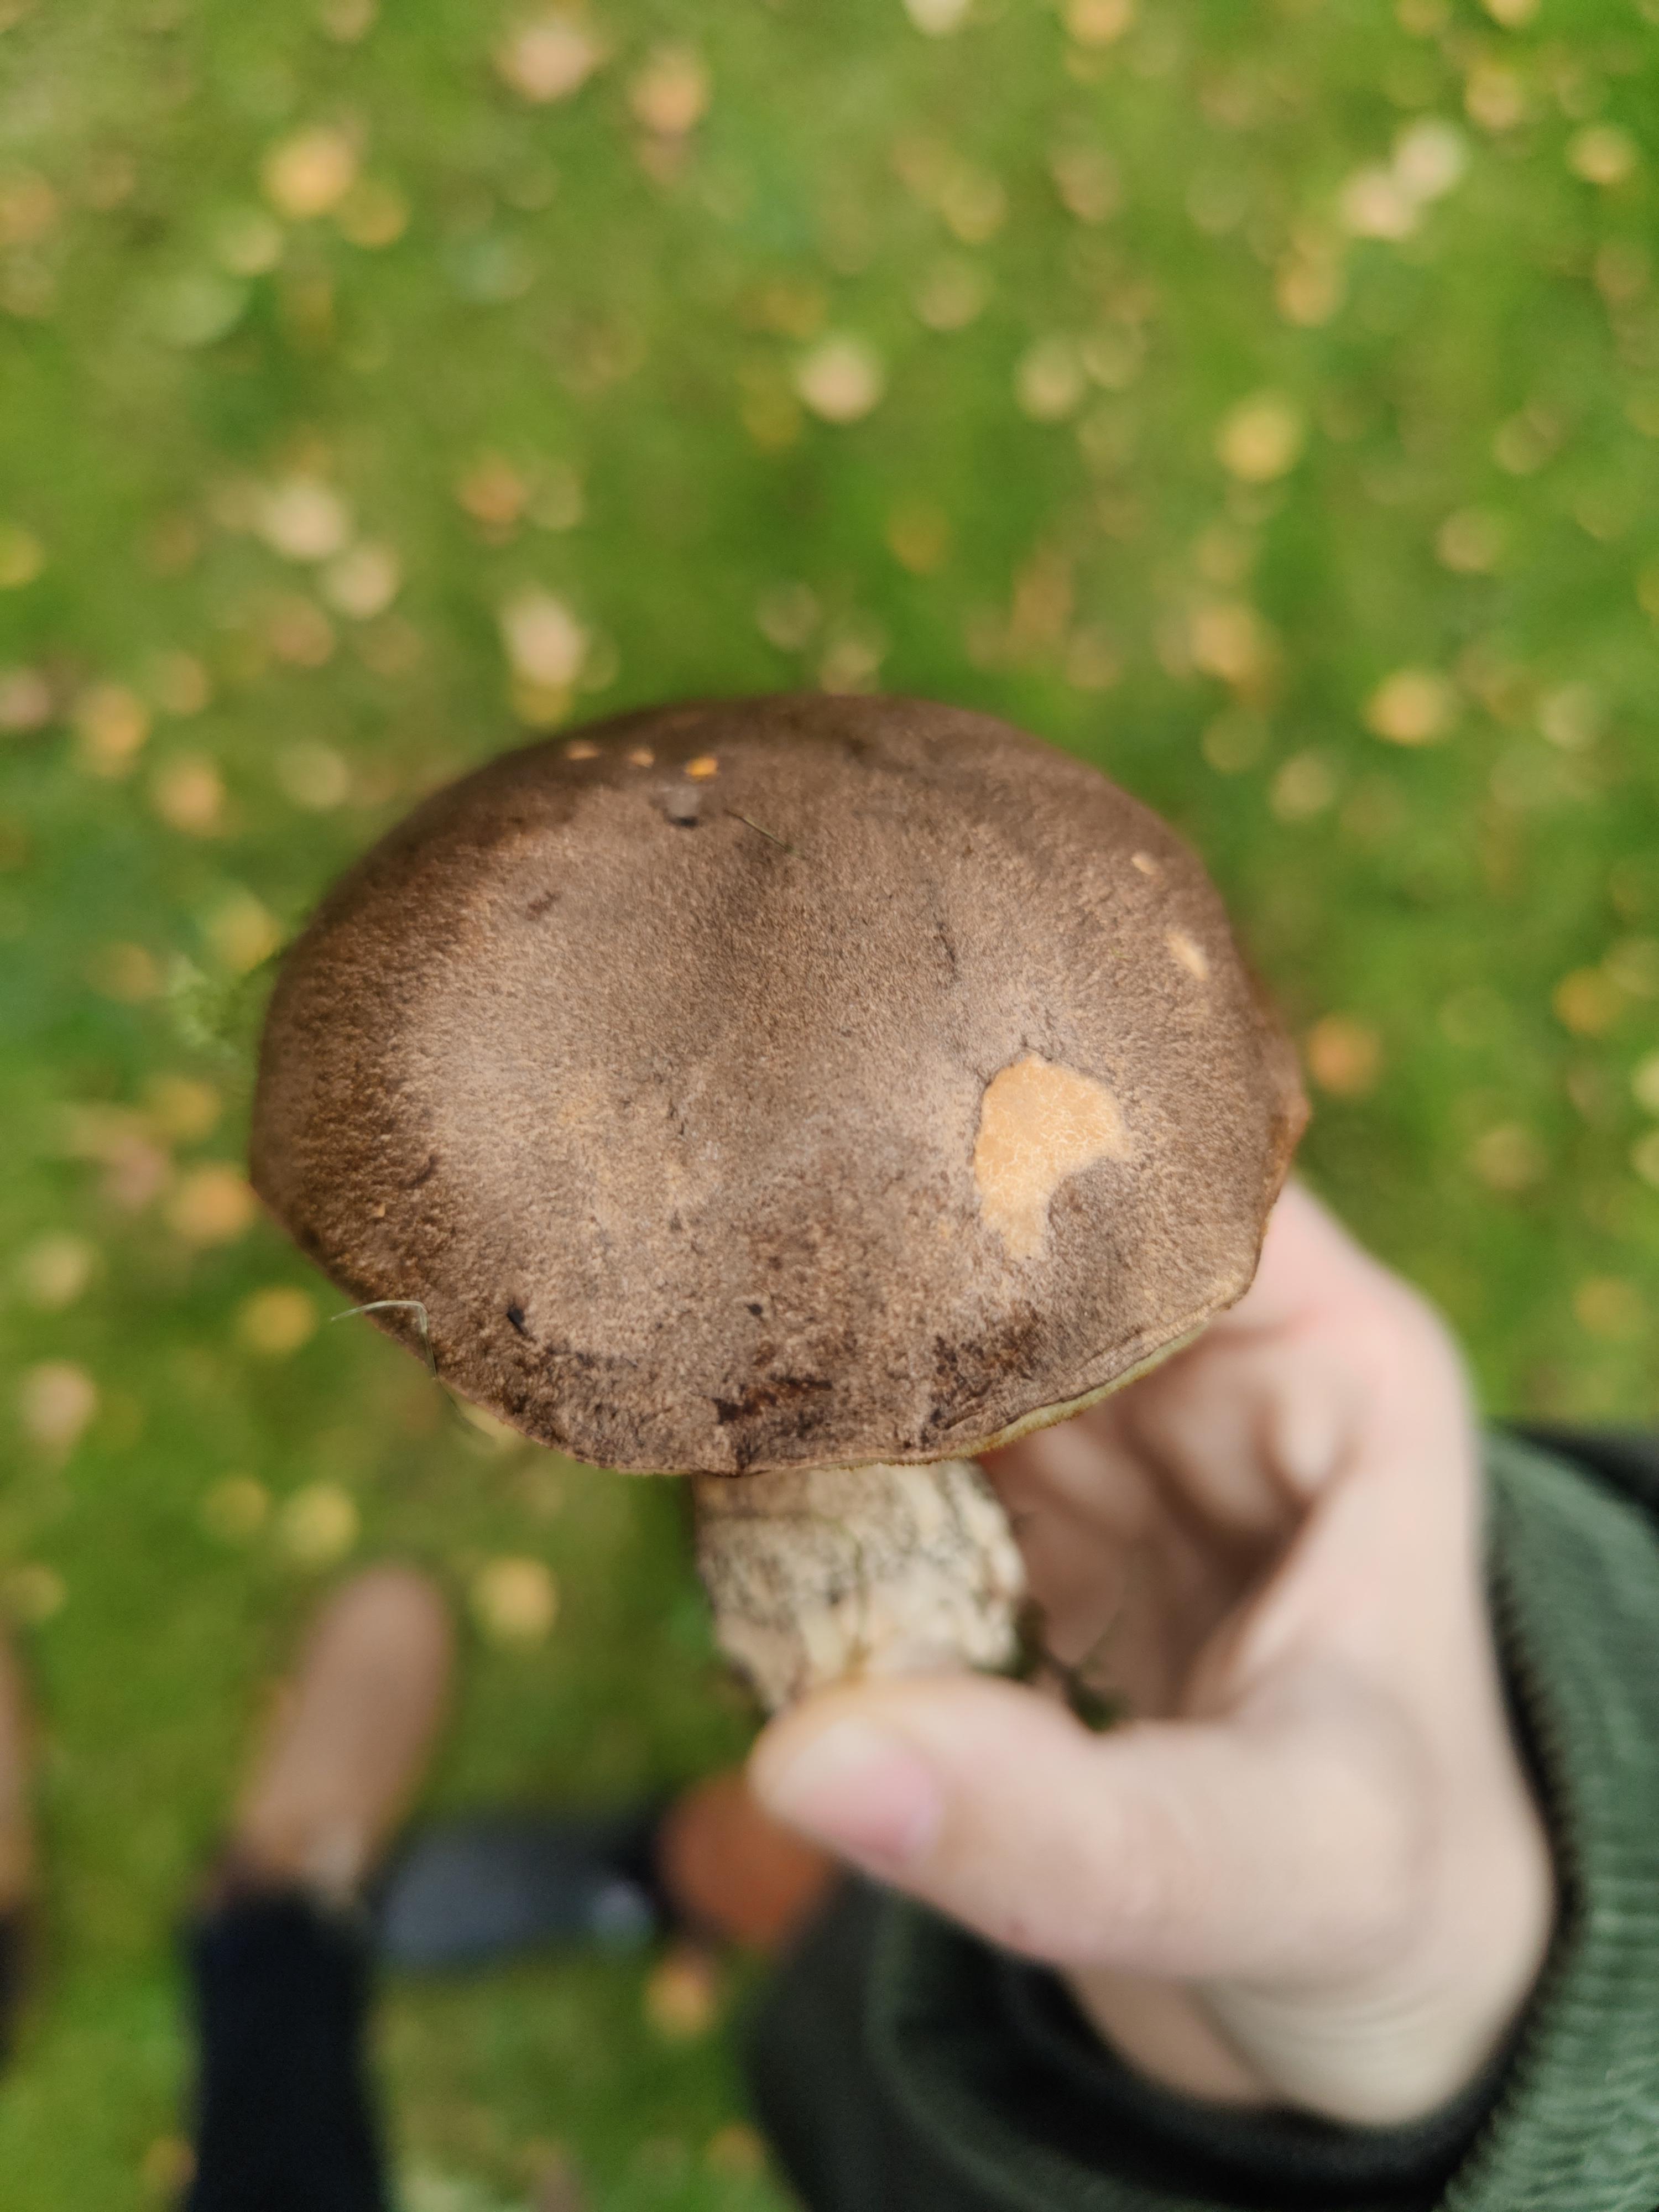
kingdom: Fungi
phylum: Basidiomycota
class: Agaricomycetes
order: Boletales
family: Boletaceae
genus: Leccinum
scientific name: Leccinum scabrum
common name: brun skælrørhat
